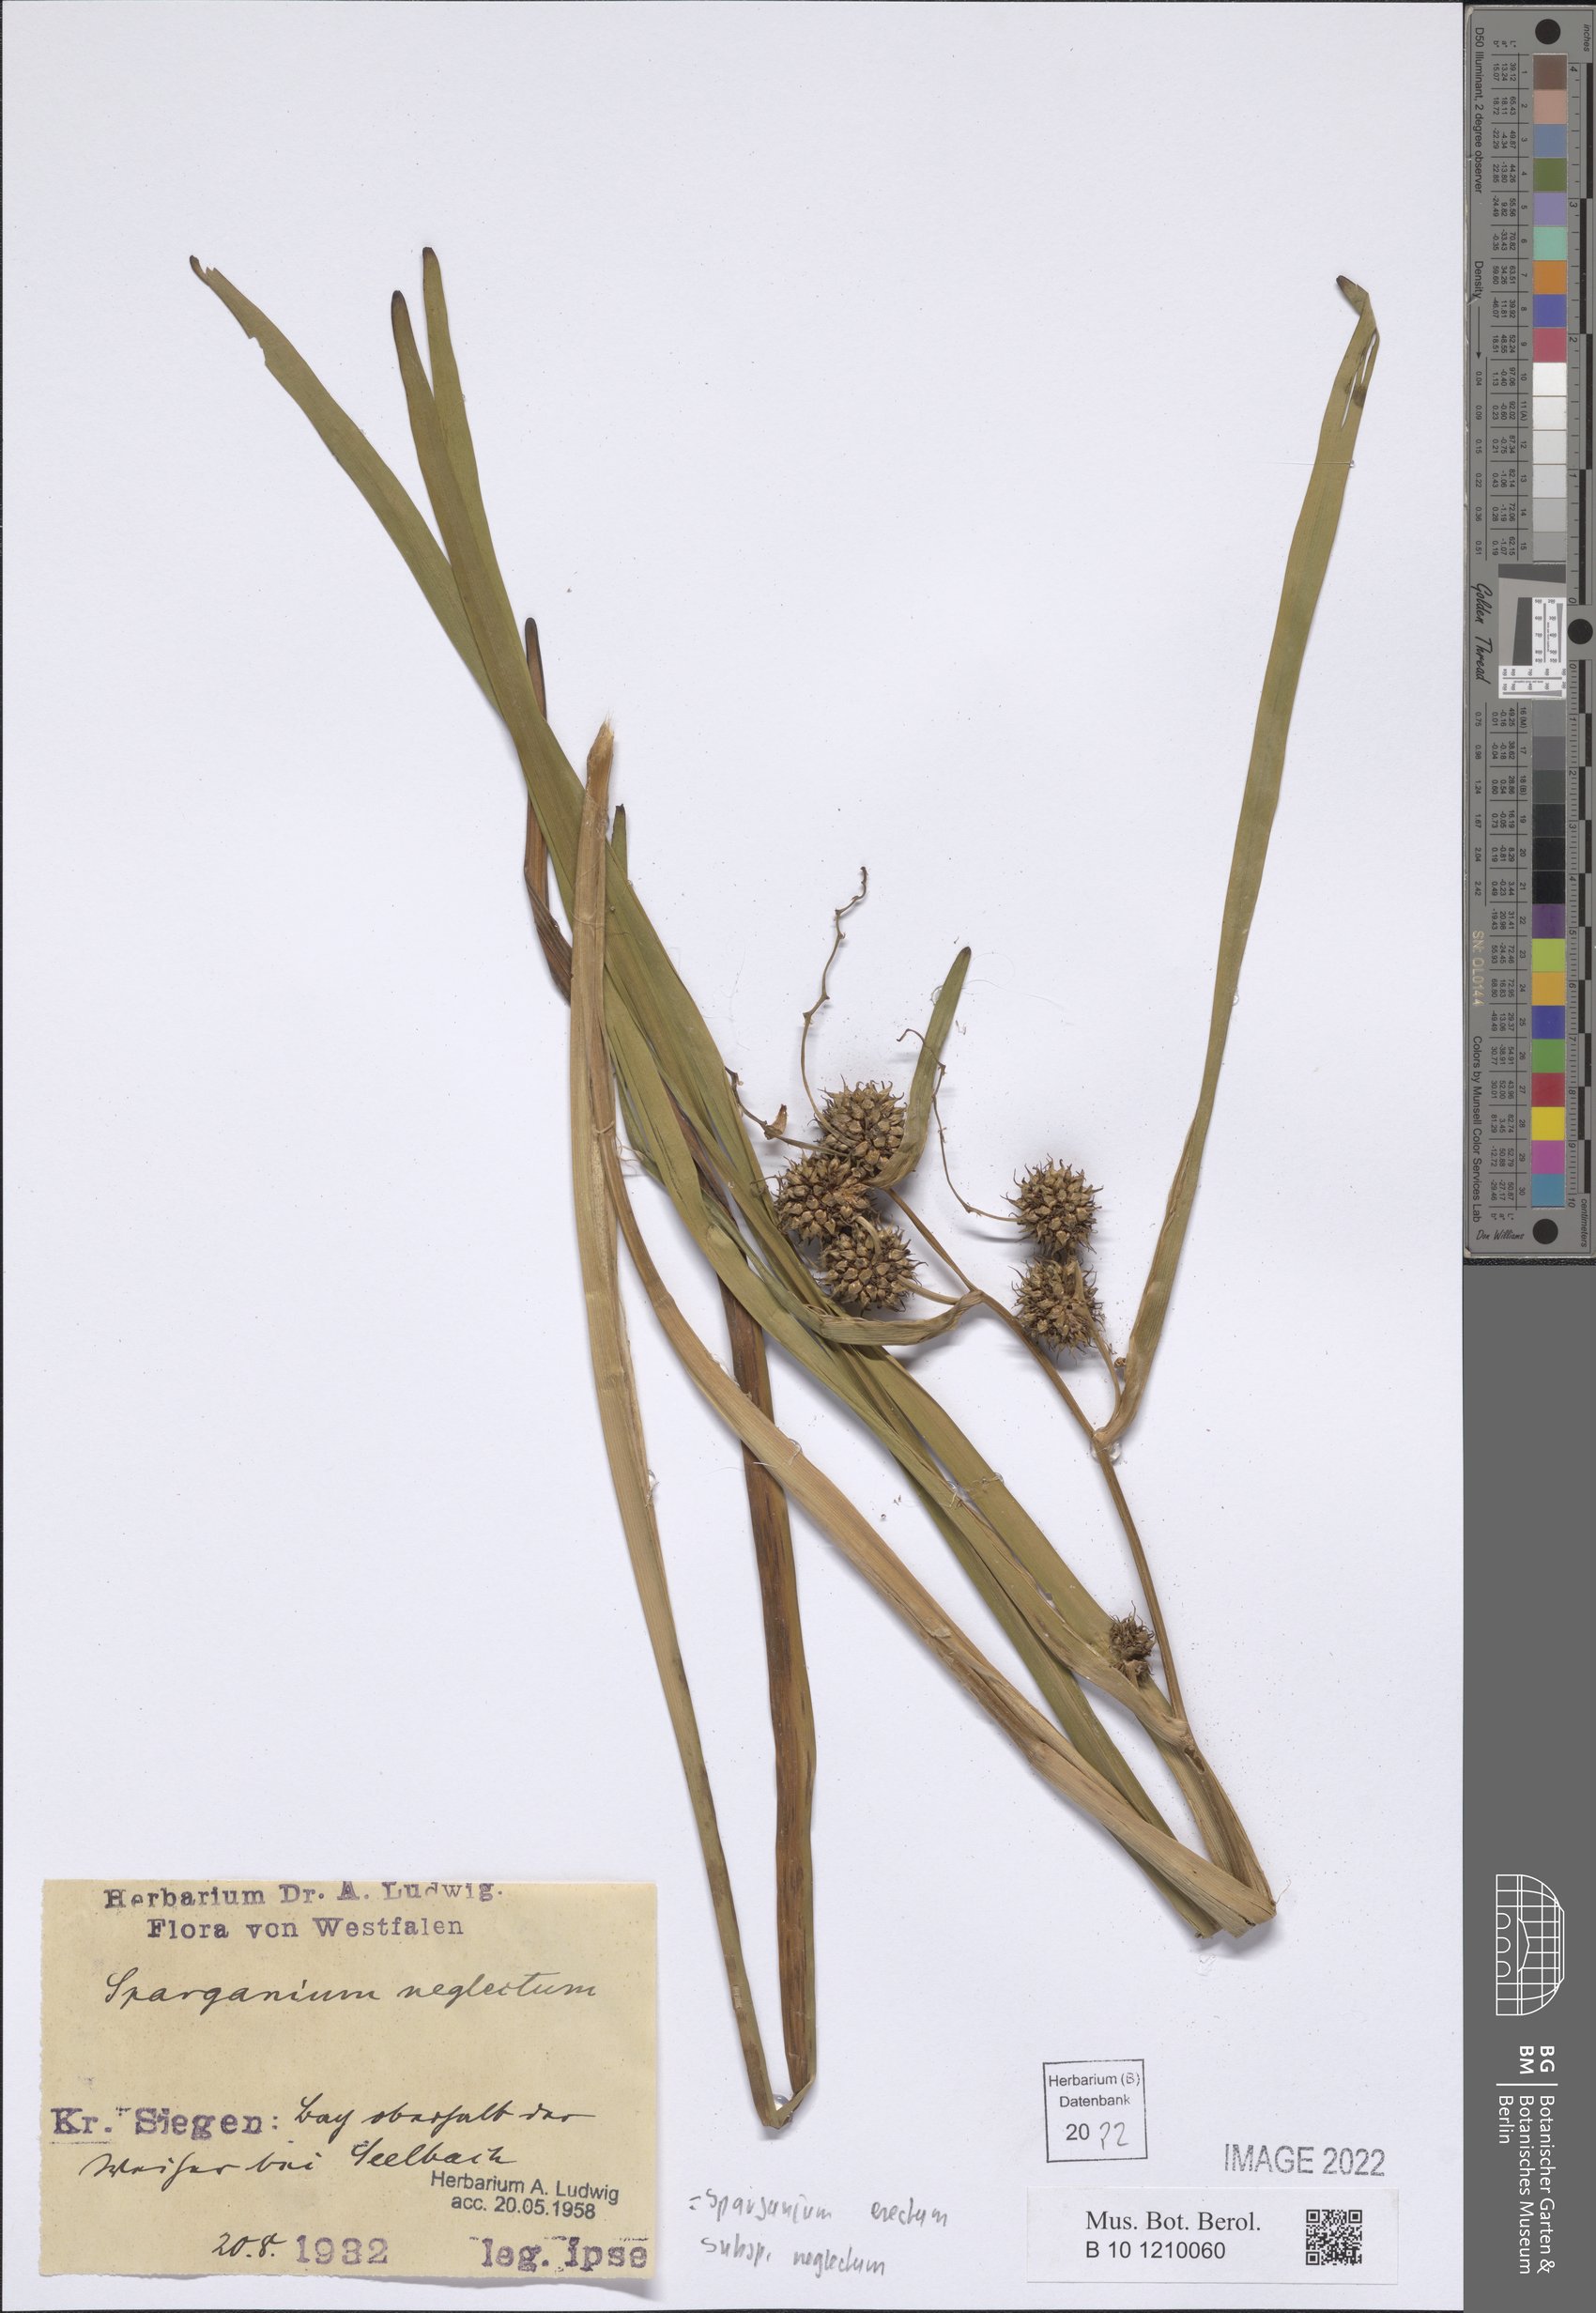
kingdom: Plantae
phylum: Tracheophyta
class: Liliopsida
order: Poales
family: Typhaceae
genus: Sparganium
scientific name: Sparganium erectum
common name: Branched bur-reed
